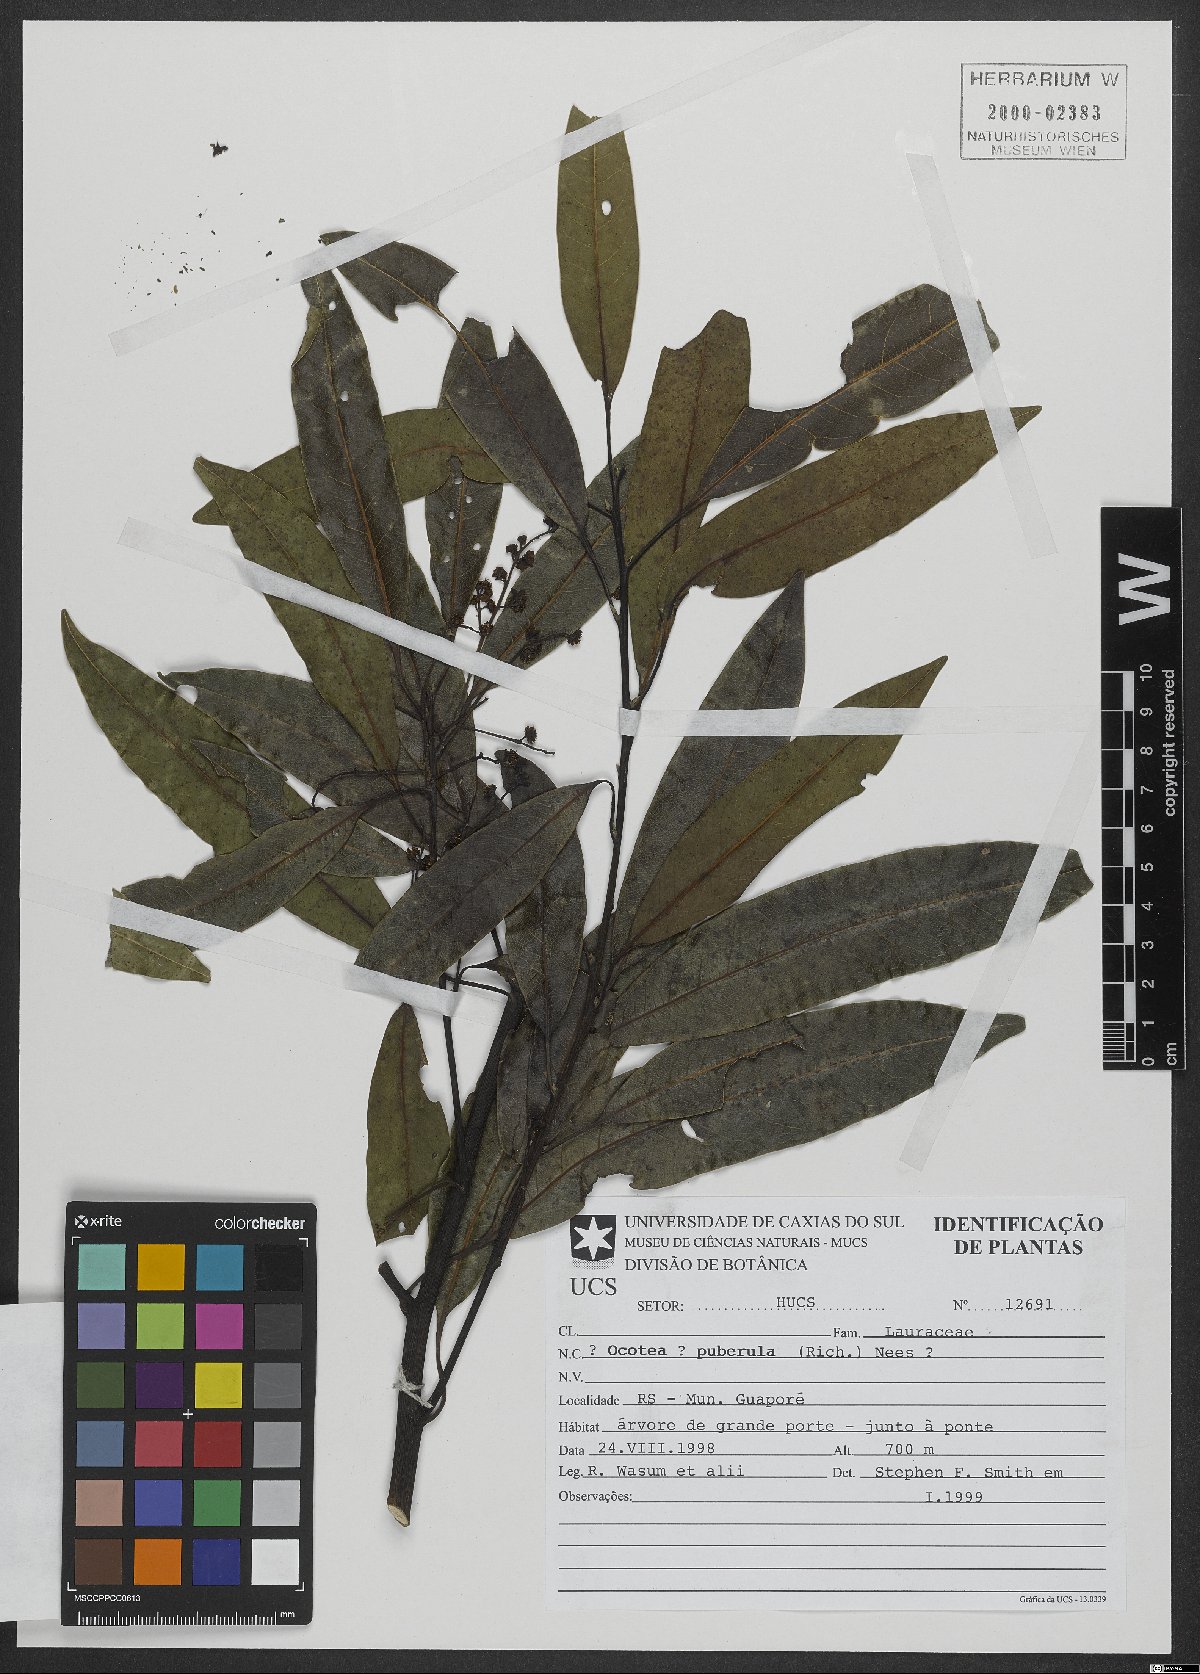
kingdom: Plantae
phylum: Tracheophyta
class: Magnoliopsida
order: Laurales
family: Lauraceae
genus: Ocotea
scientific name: Ocotea puberula
